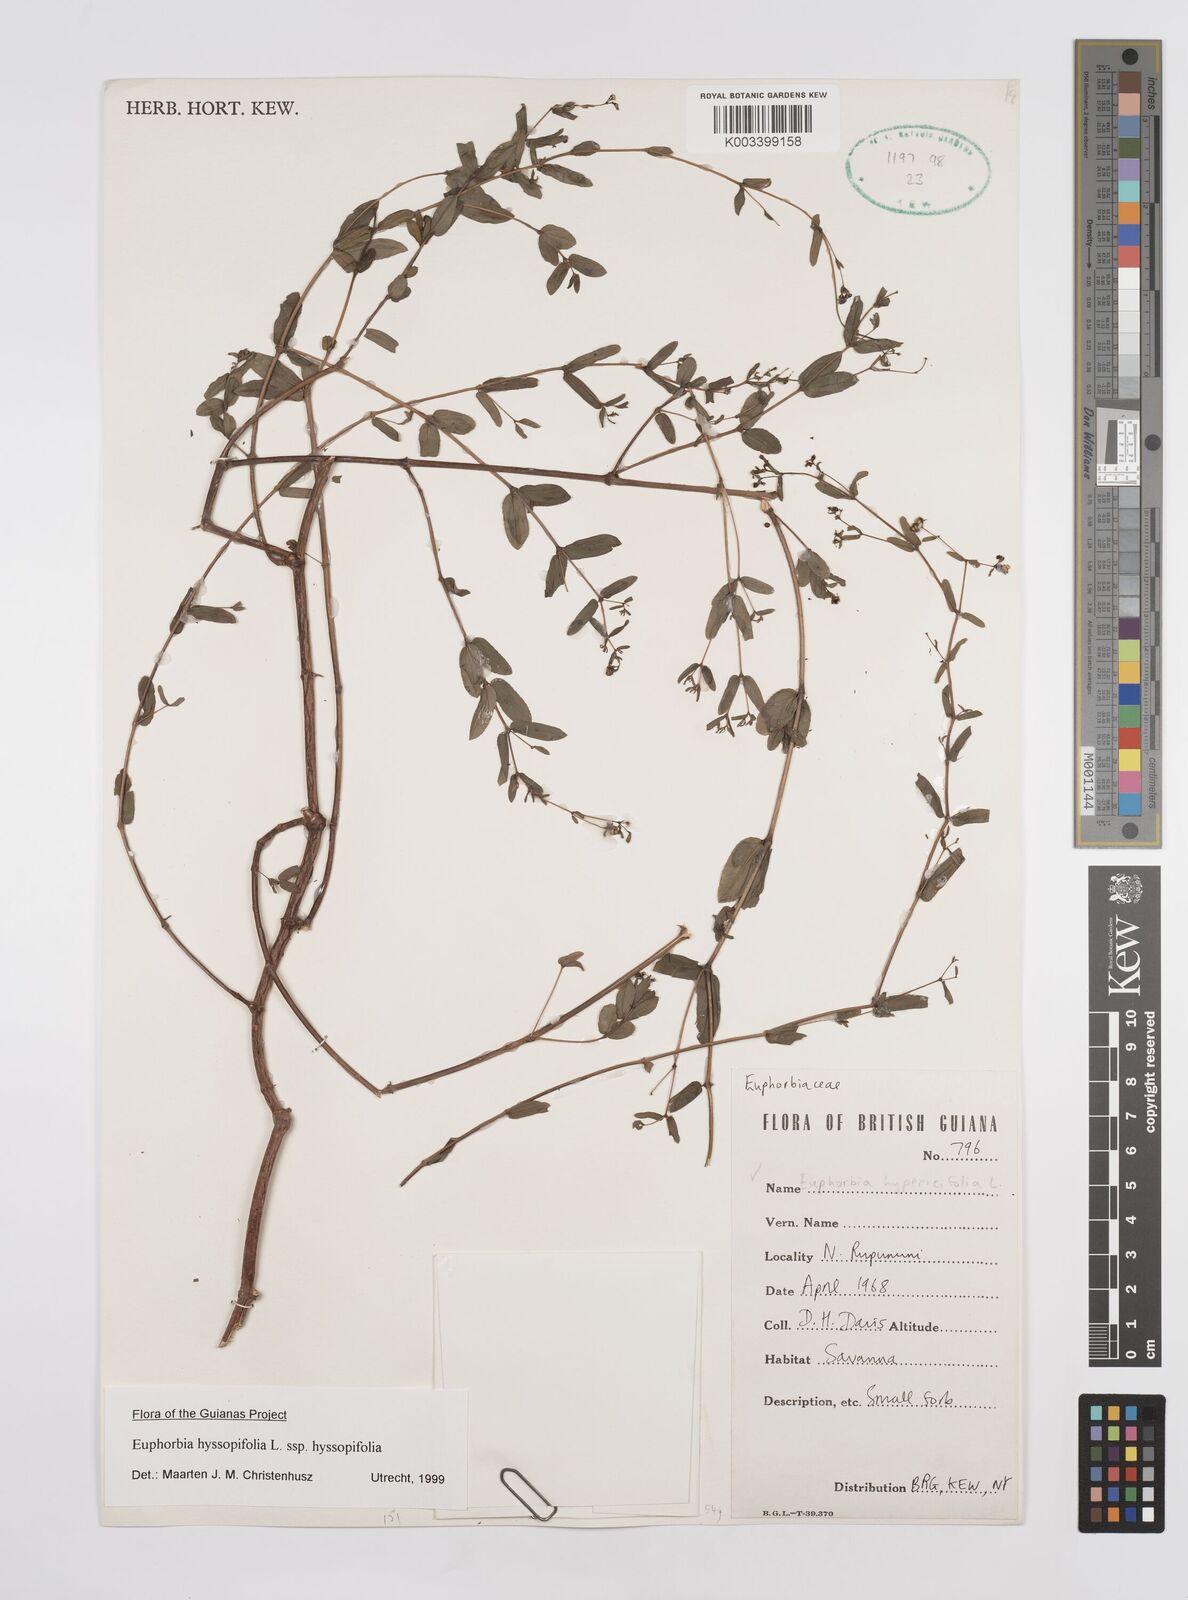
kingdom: Plantae
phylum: Tracheophyta
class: Magnoliopsida
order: Malpighiales
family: Euphorbiaceae
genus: Euphorbia
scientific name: Euphorbia hyssopifolia
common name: Hyssopleaf sandmat
